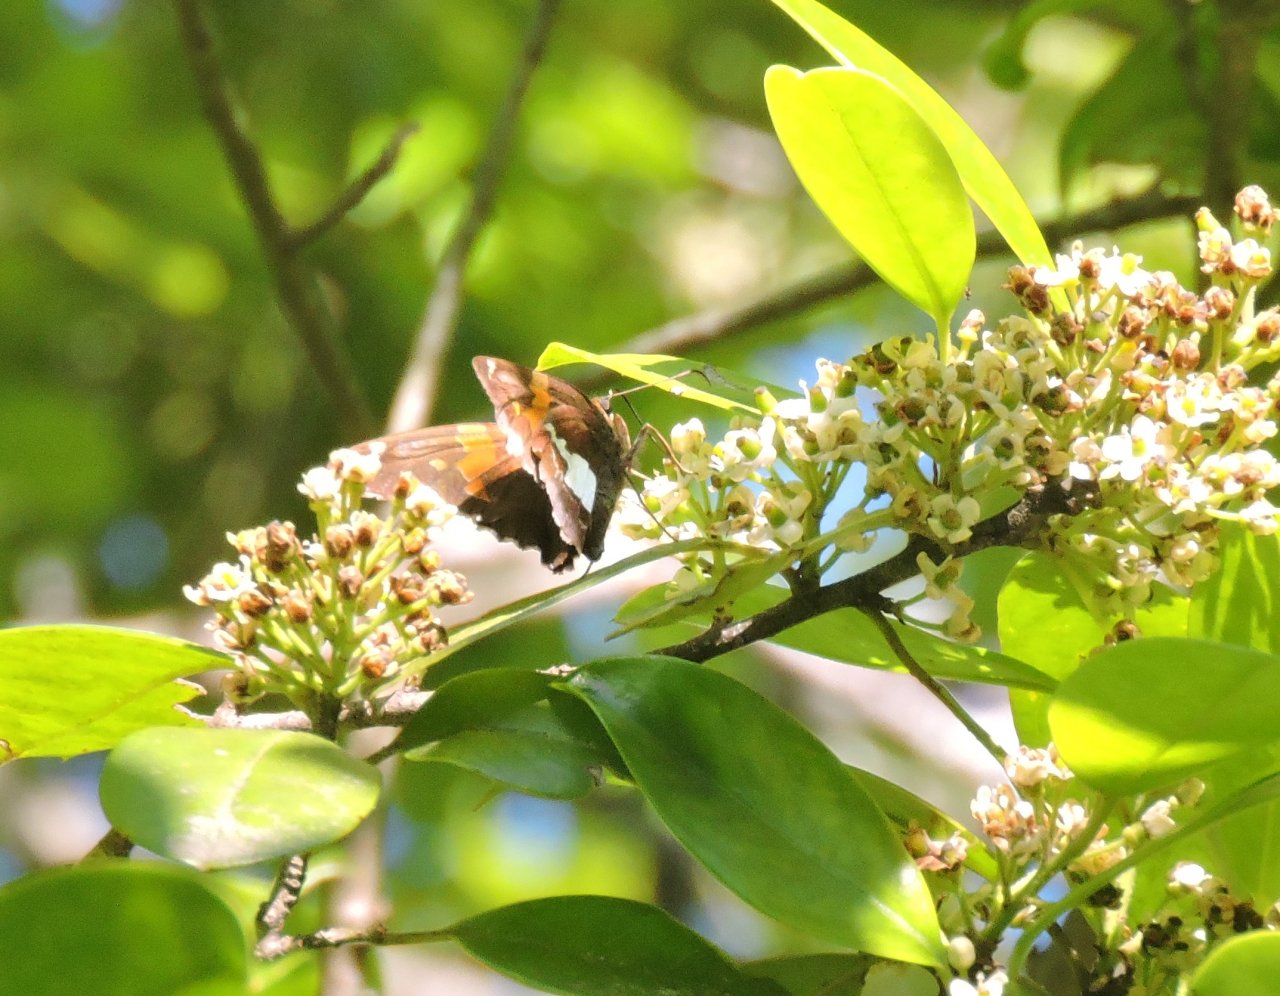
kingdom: Animalia
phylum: Arthropoda
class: Insecta
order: Lepidoptera
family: Hesperiidae
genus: Epargyreus
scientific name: Epargyreus clarus
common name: Silver-spotted Skipper
